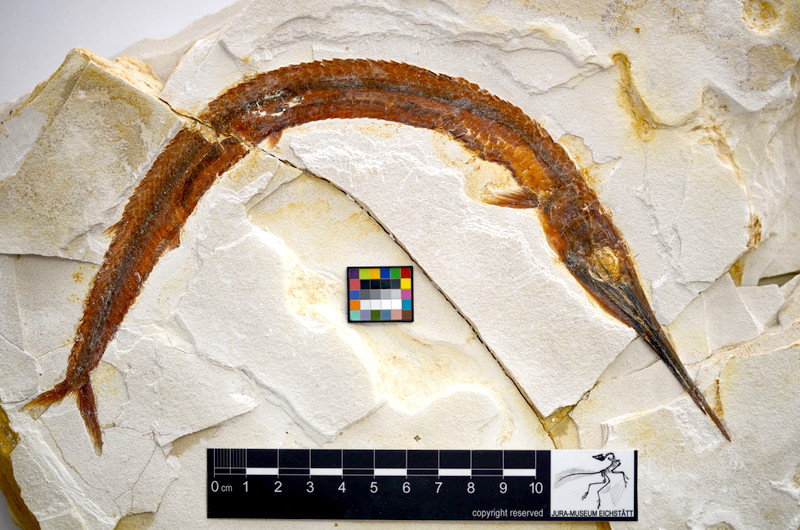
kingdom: Animalia
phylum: Chordata
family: Aspidorhynchidae
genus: Belonostomus
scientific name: Belonostomus kochii
